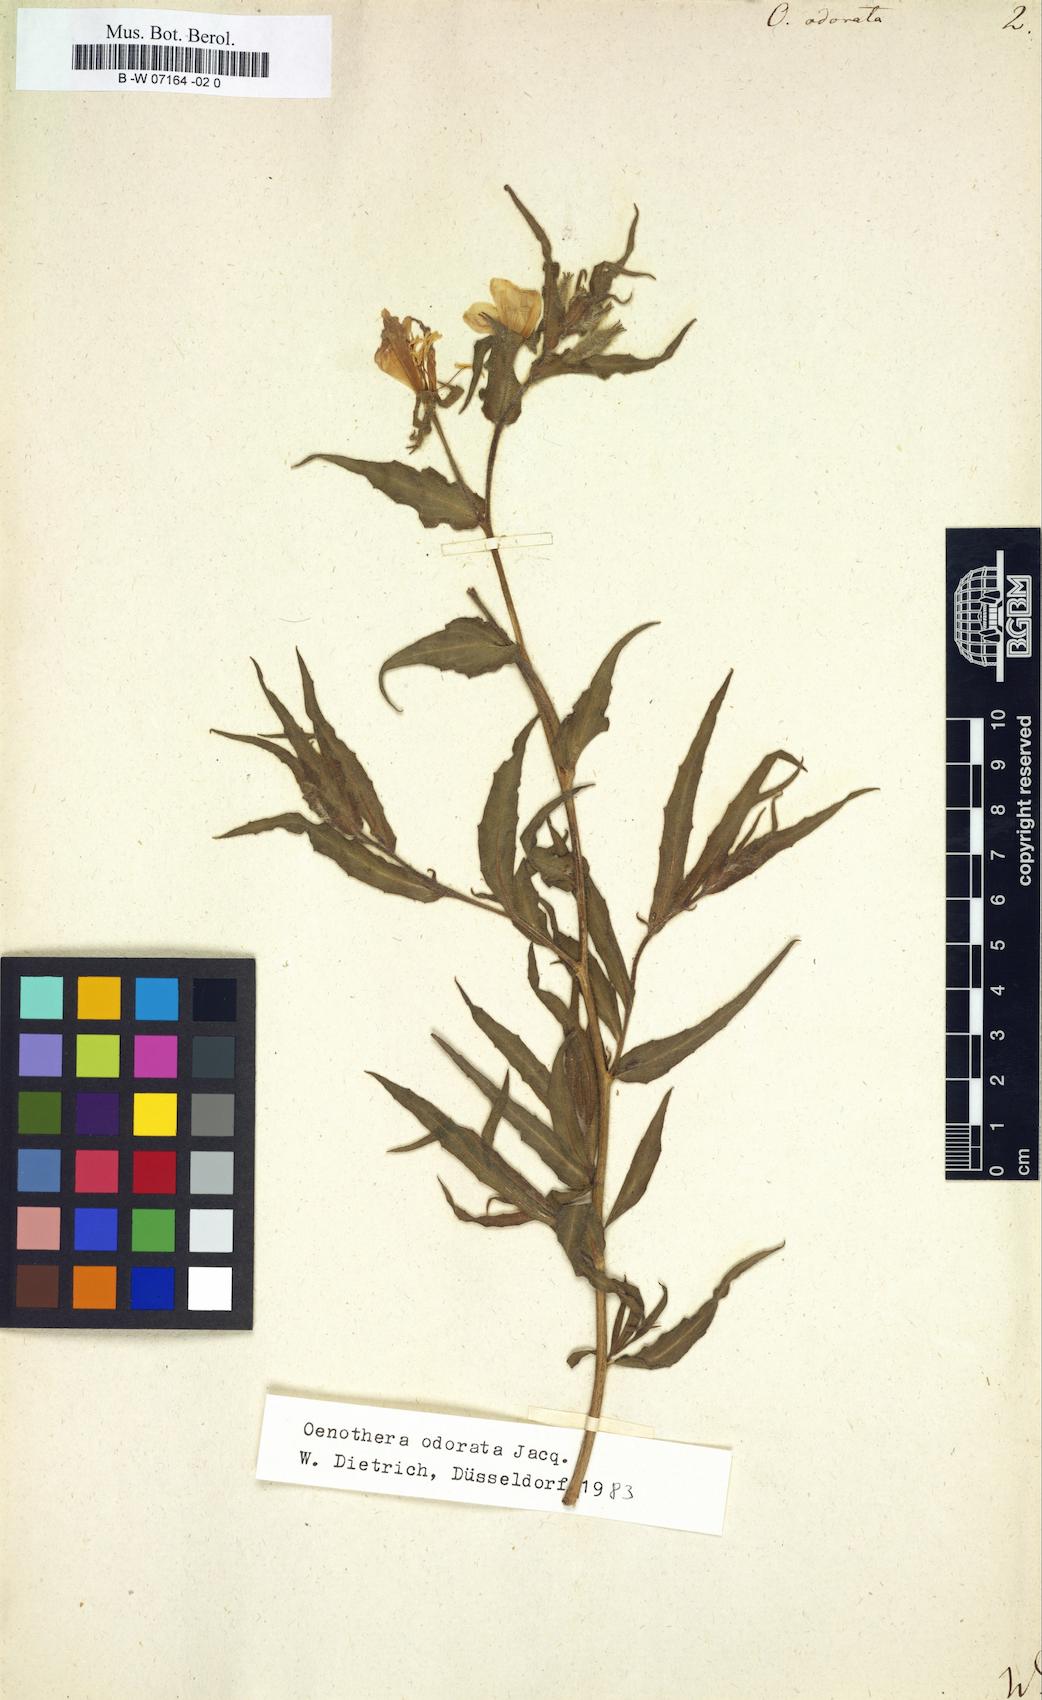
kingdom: Plantae
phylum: Tracheophyta
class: Magnoliopsida
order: Myrtales
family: Onagraceae
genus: Oenothera
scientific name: Oenothera odorata
